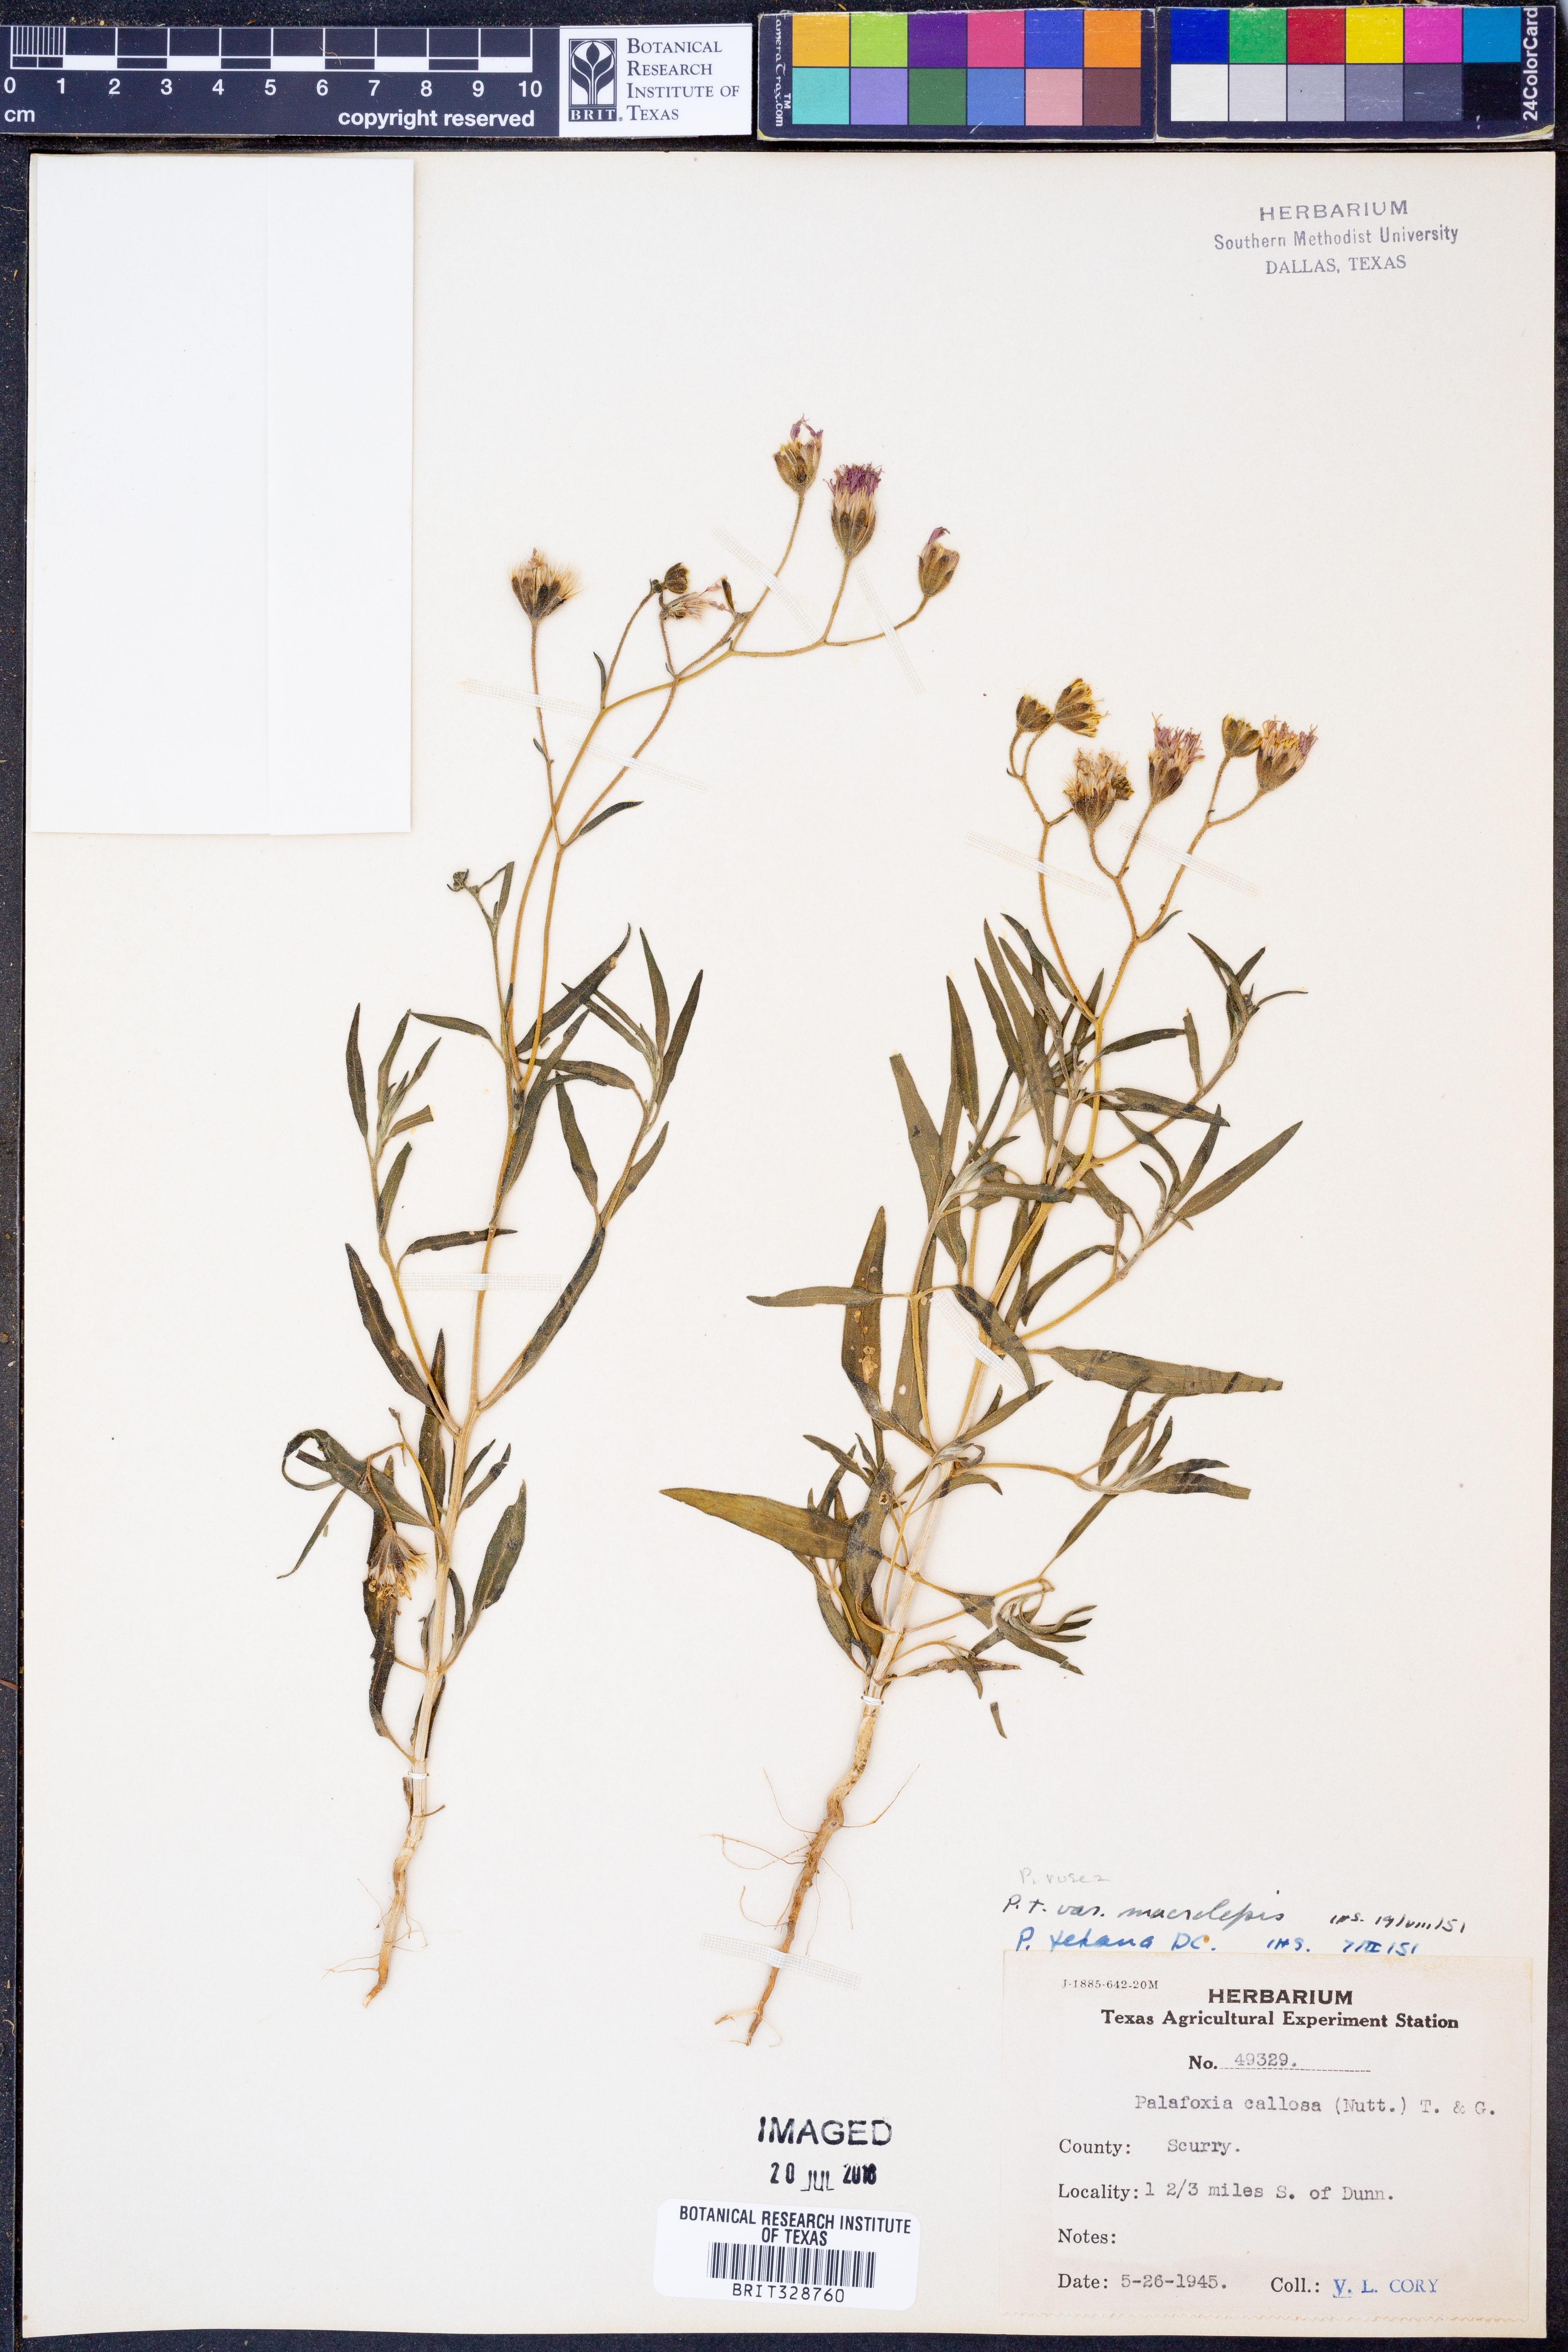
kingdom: Plantae
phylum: Tracheophyta
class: Magnoliopsida
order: Asterales
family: Asteraceae
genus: Palafoxia
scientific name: Palafoxia rosea
